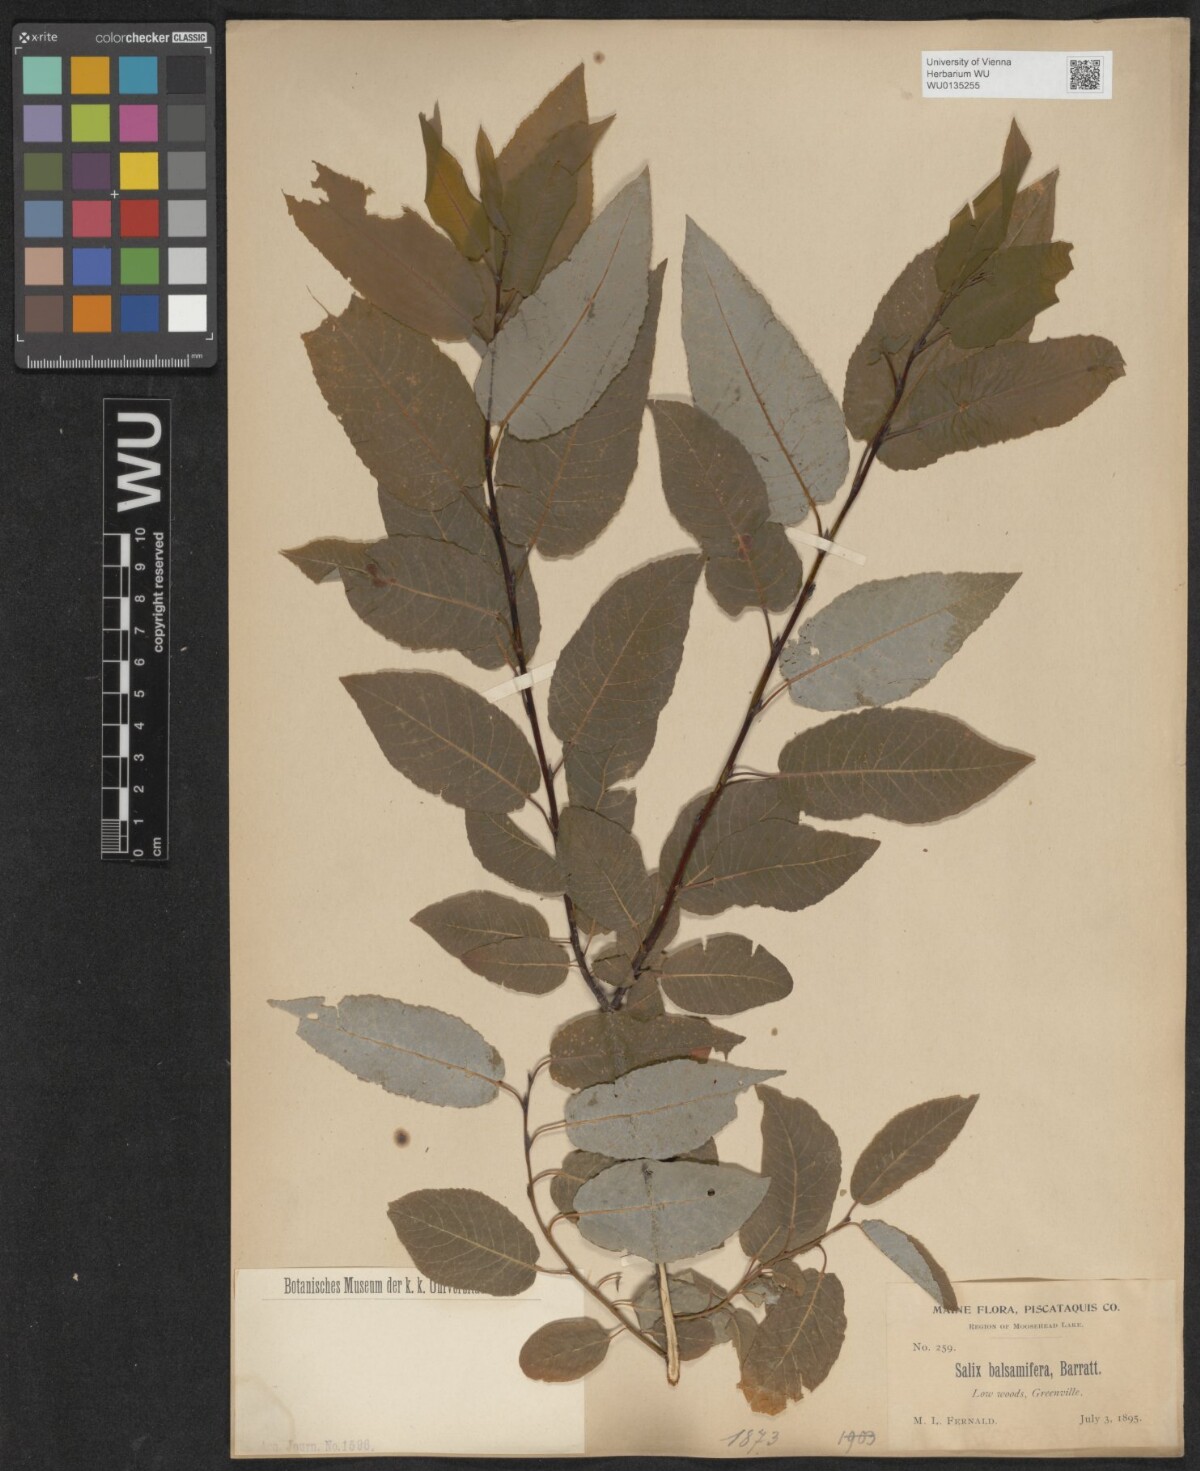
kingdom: Plantae
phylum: Tracheophyta
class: Magnoliopsida
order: Malpighiales
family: Salicaceae
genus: Salix
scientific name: Salix pyrifolia
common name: Balsam willow
